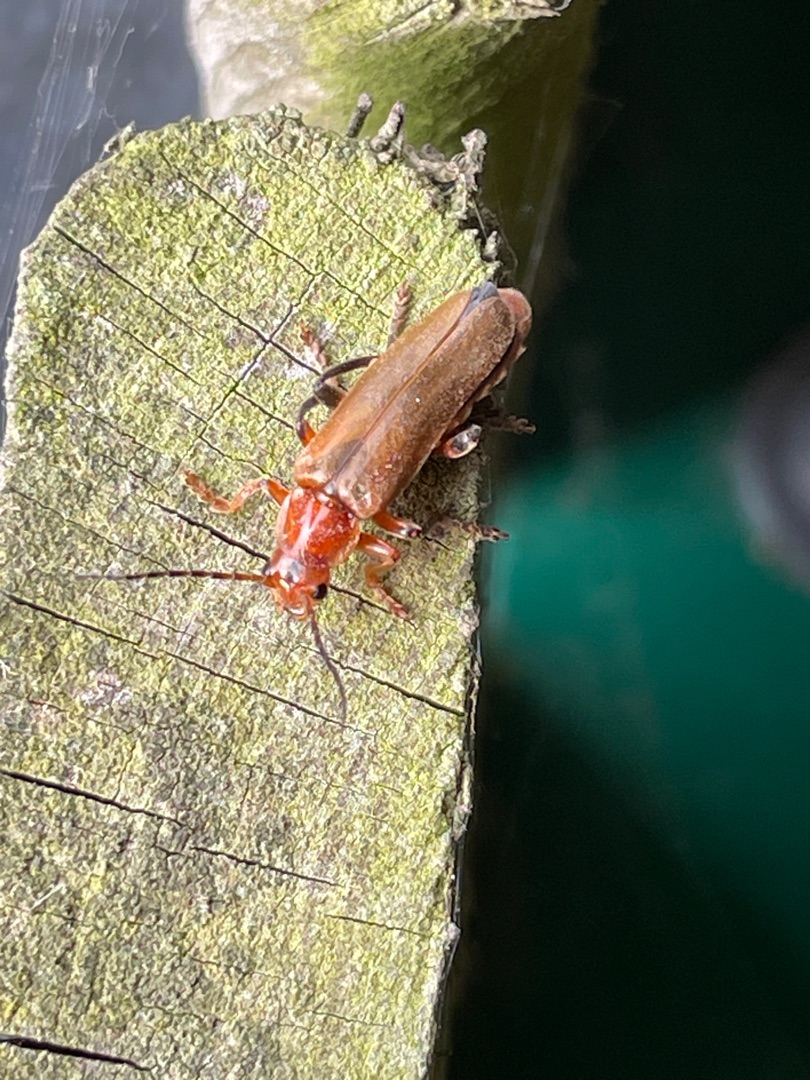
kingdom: Animalia
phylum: Arthropoda
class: Insecta
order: Coleoptera
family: Cantharidae
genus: Cantharis
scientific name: Cantharis livida
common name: Gul blødvinge
